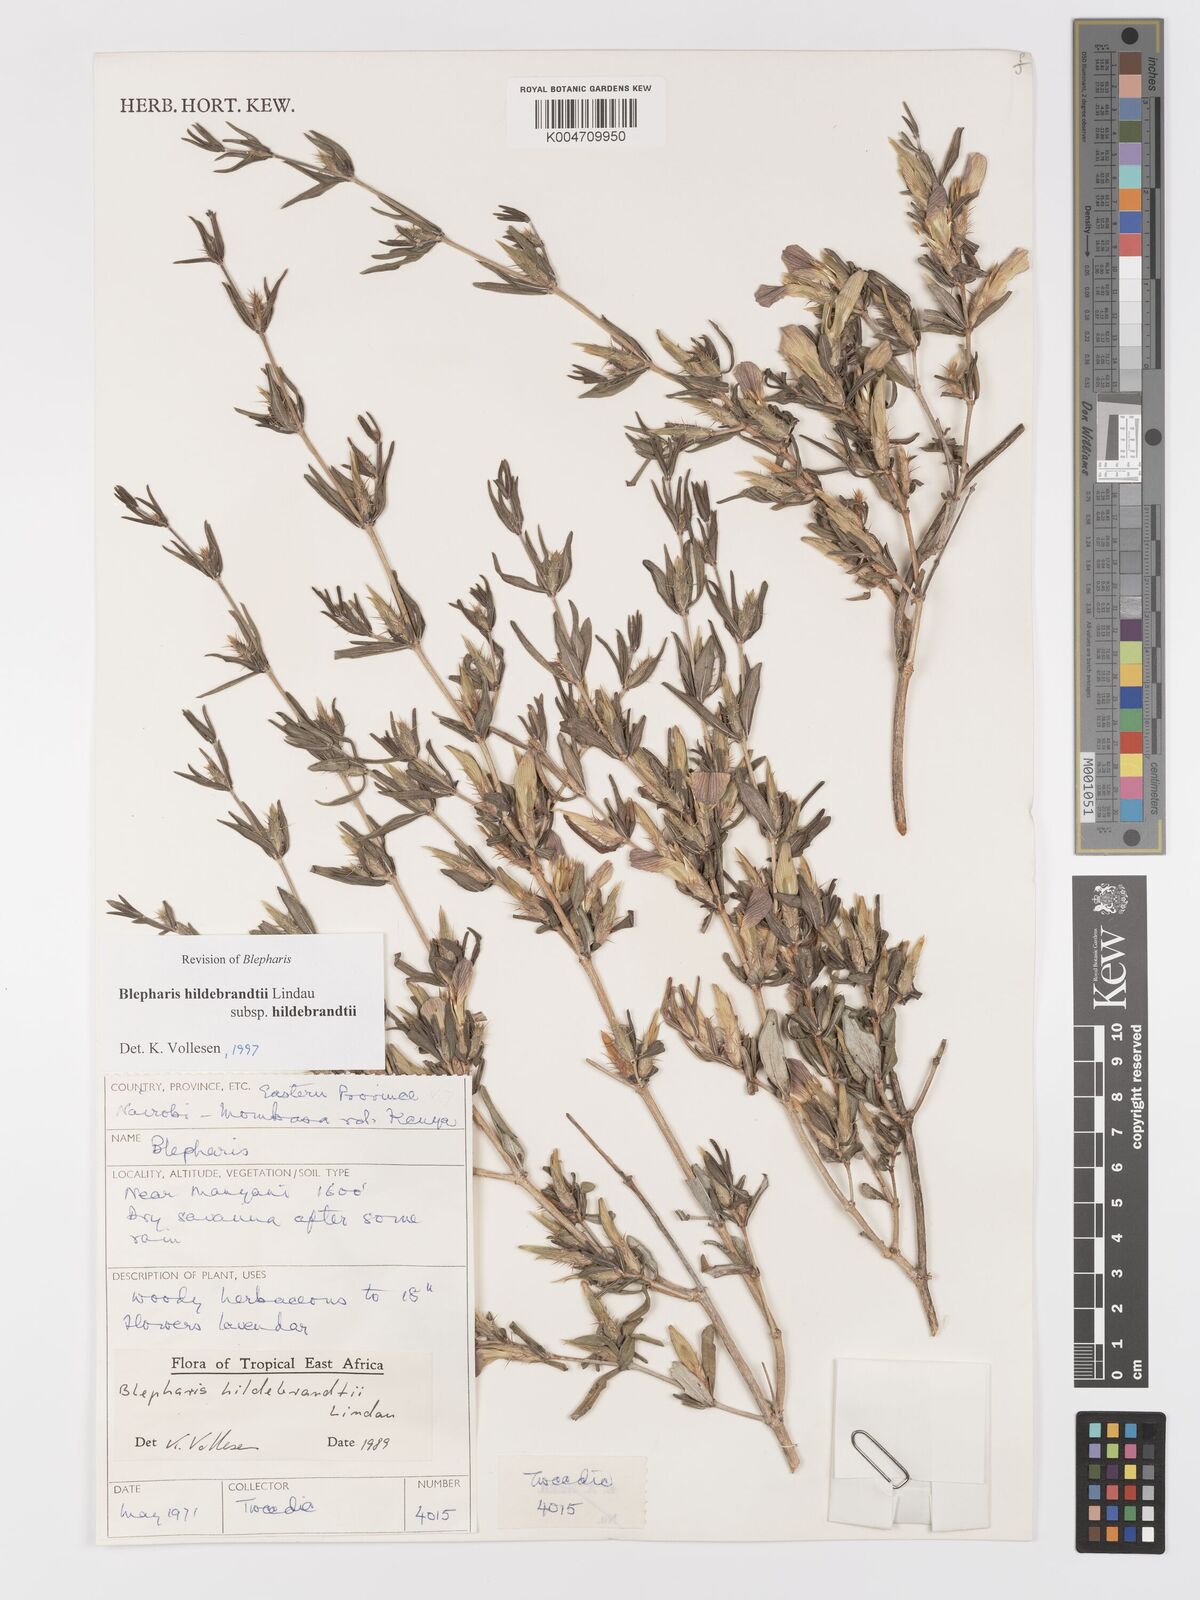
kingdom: Plantae
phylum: Tracheophyta
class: Magnoliopsida
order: Lamiales
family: Acanthaceae
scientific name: Acanthaceae
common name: Acanthaceae
